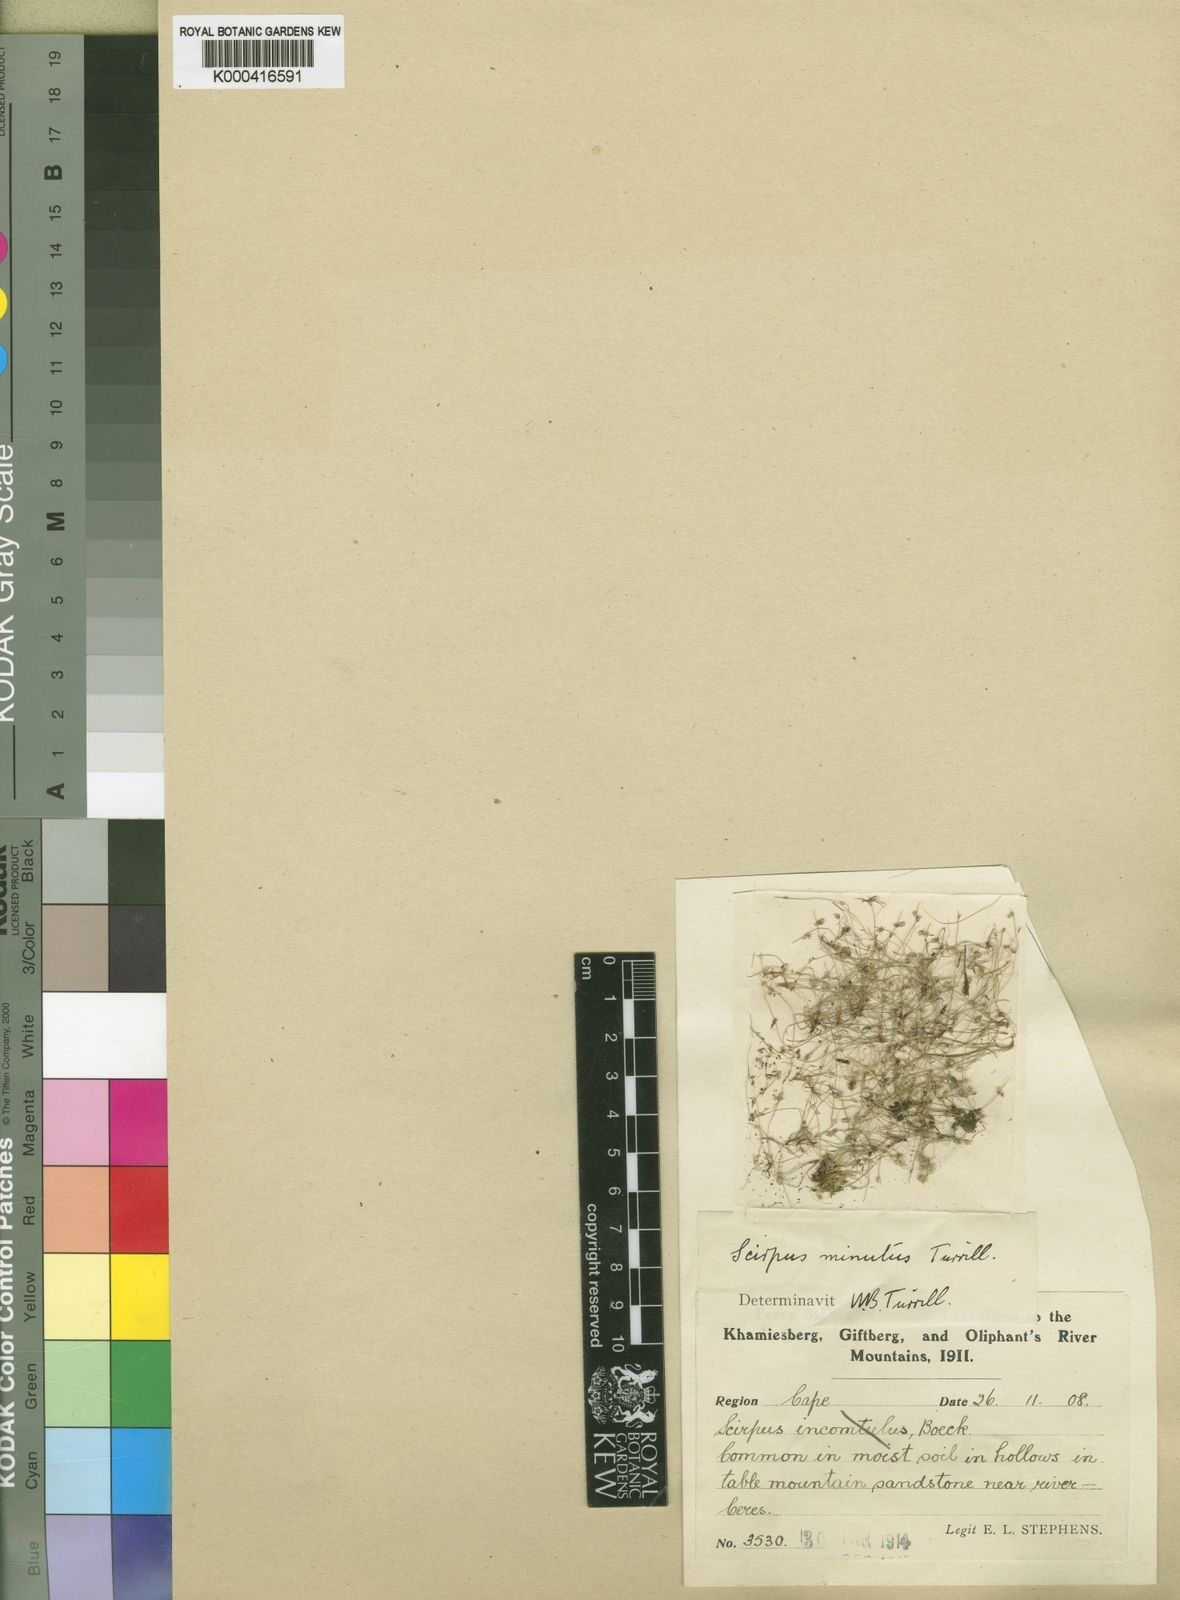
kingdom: Plantae
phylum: Tracheophyta
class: Liliopsida
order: Poales
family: Cyperaceae
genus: Ficinia
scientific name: Ficinia minuta
